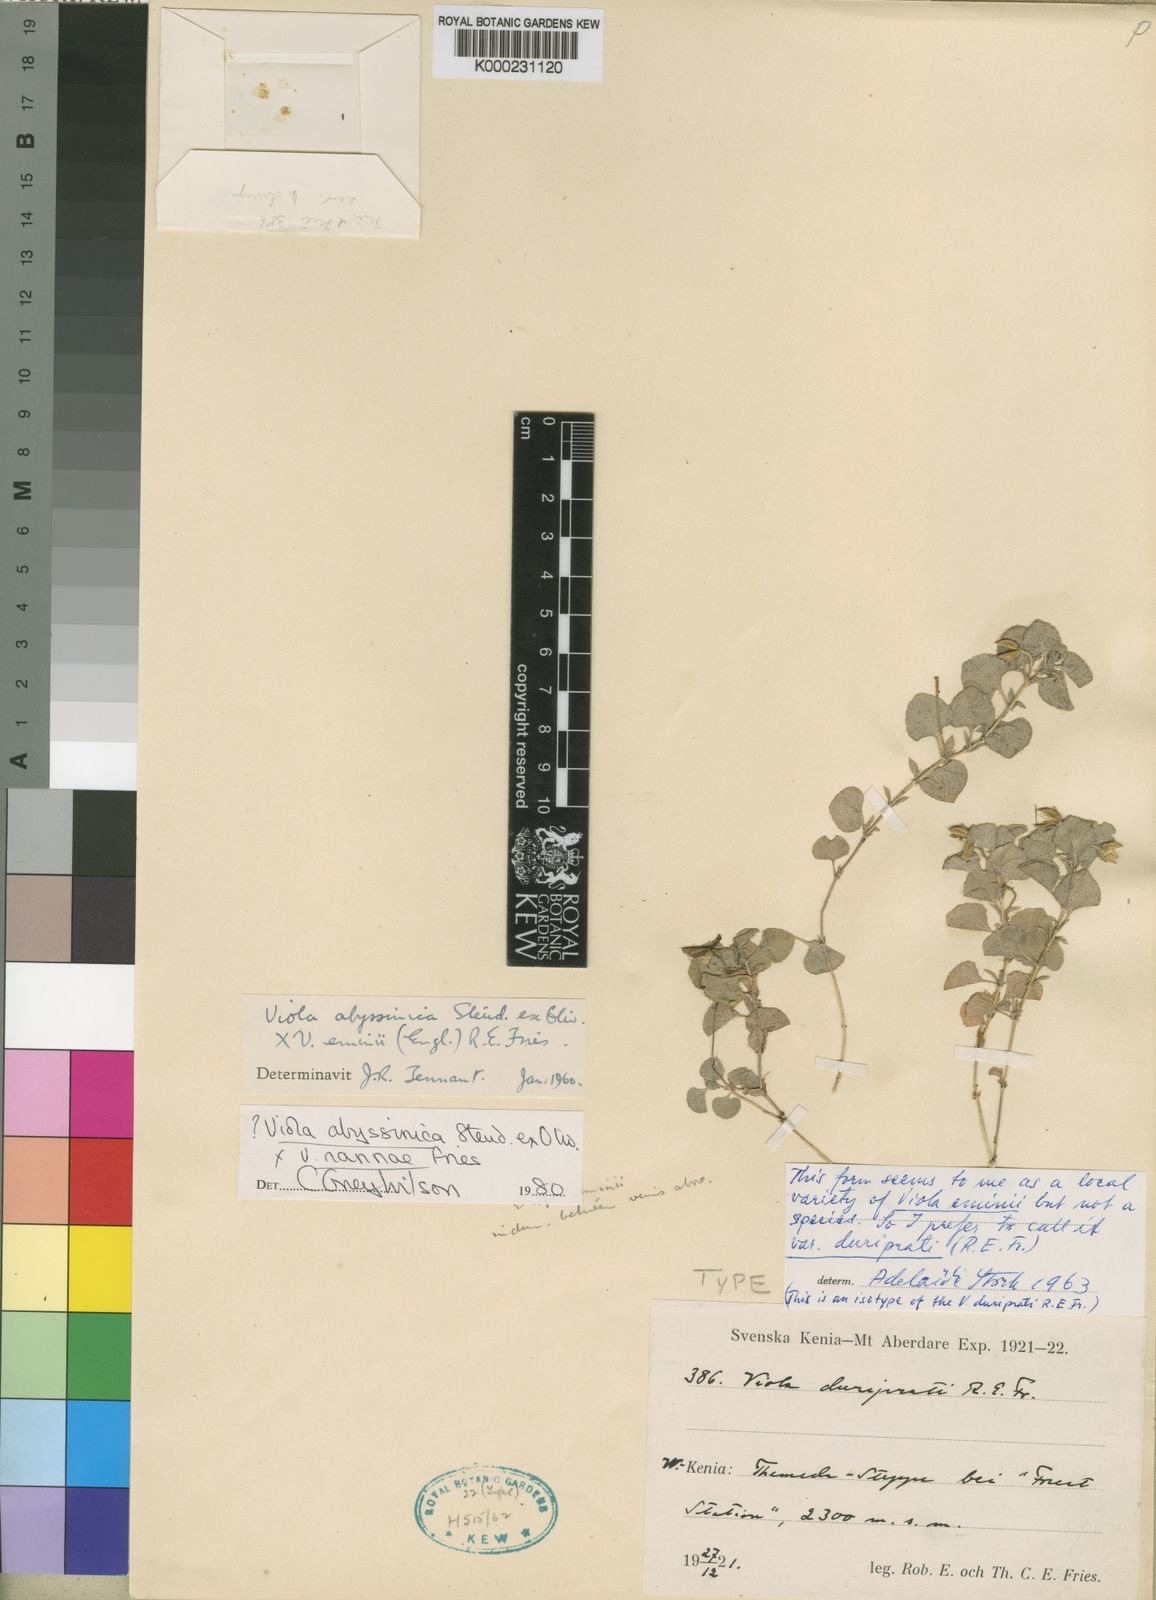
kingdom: Plantae
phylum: Tracheophyta
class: Magnoliopsida
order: Malpighiales
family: Violaceae
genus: Viola
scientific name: Viola abyssinica
